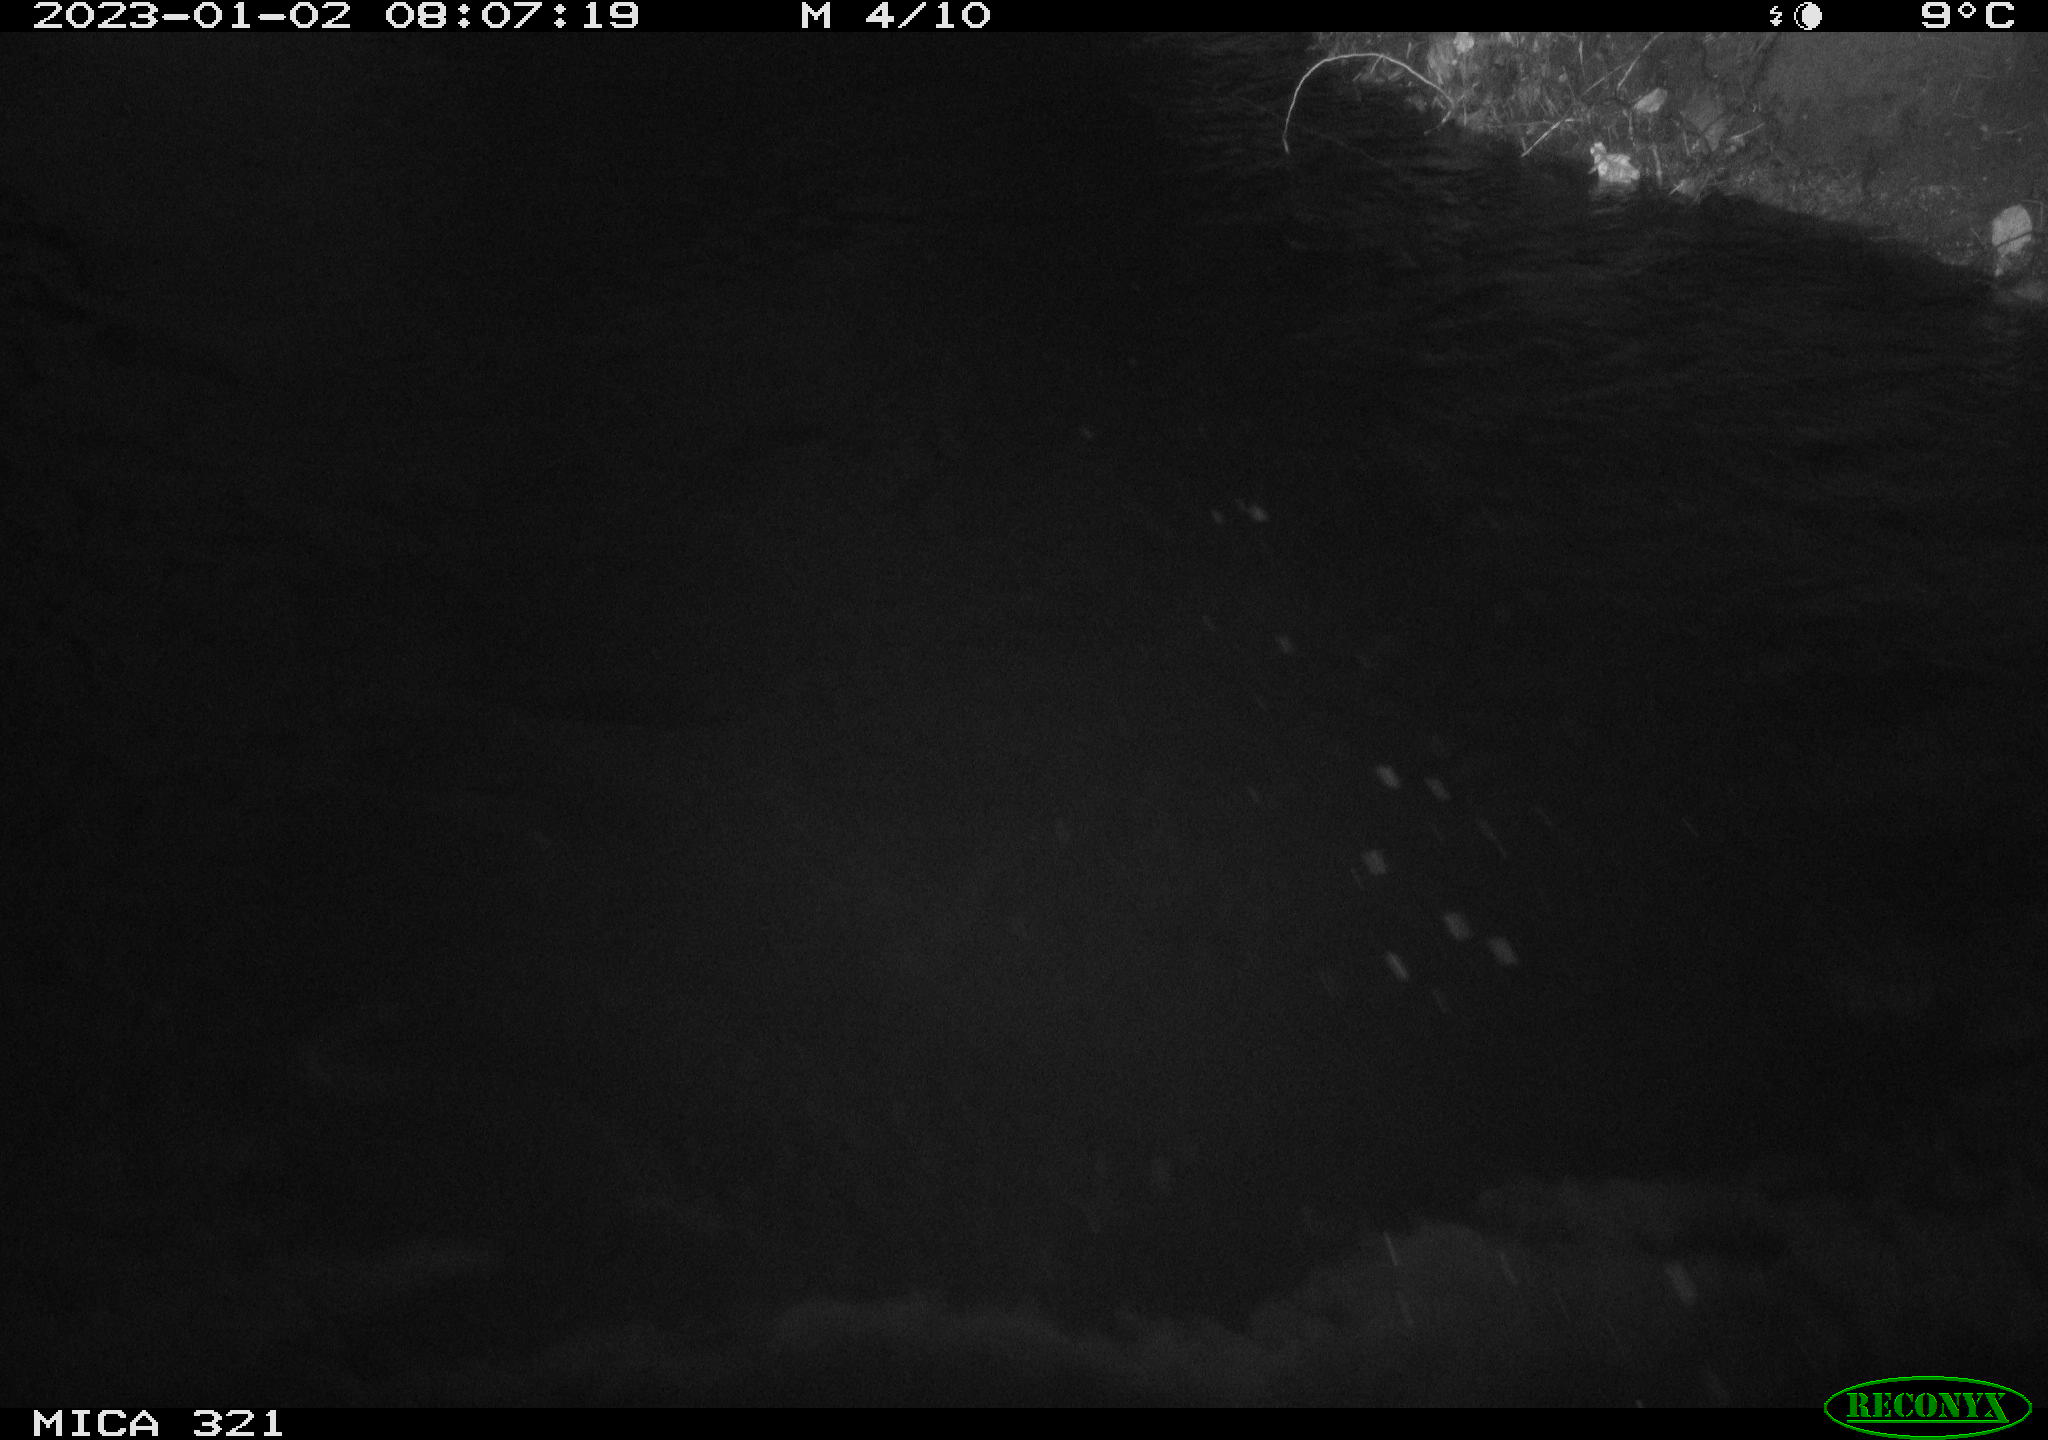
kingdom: Animalia
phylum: Chordata
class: Mammalia
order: Rodentia
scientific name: Rodentia
